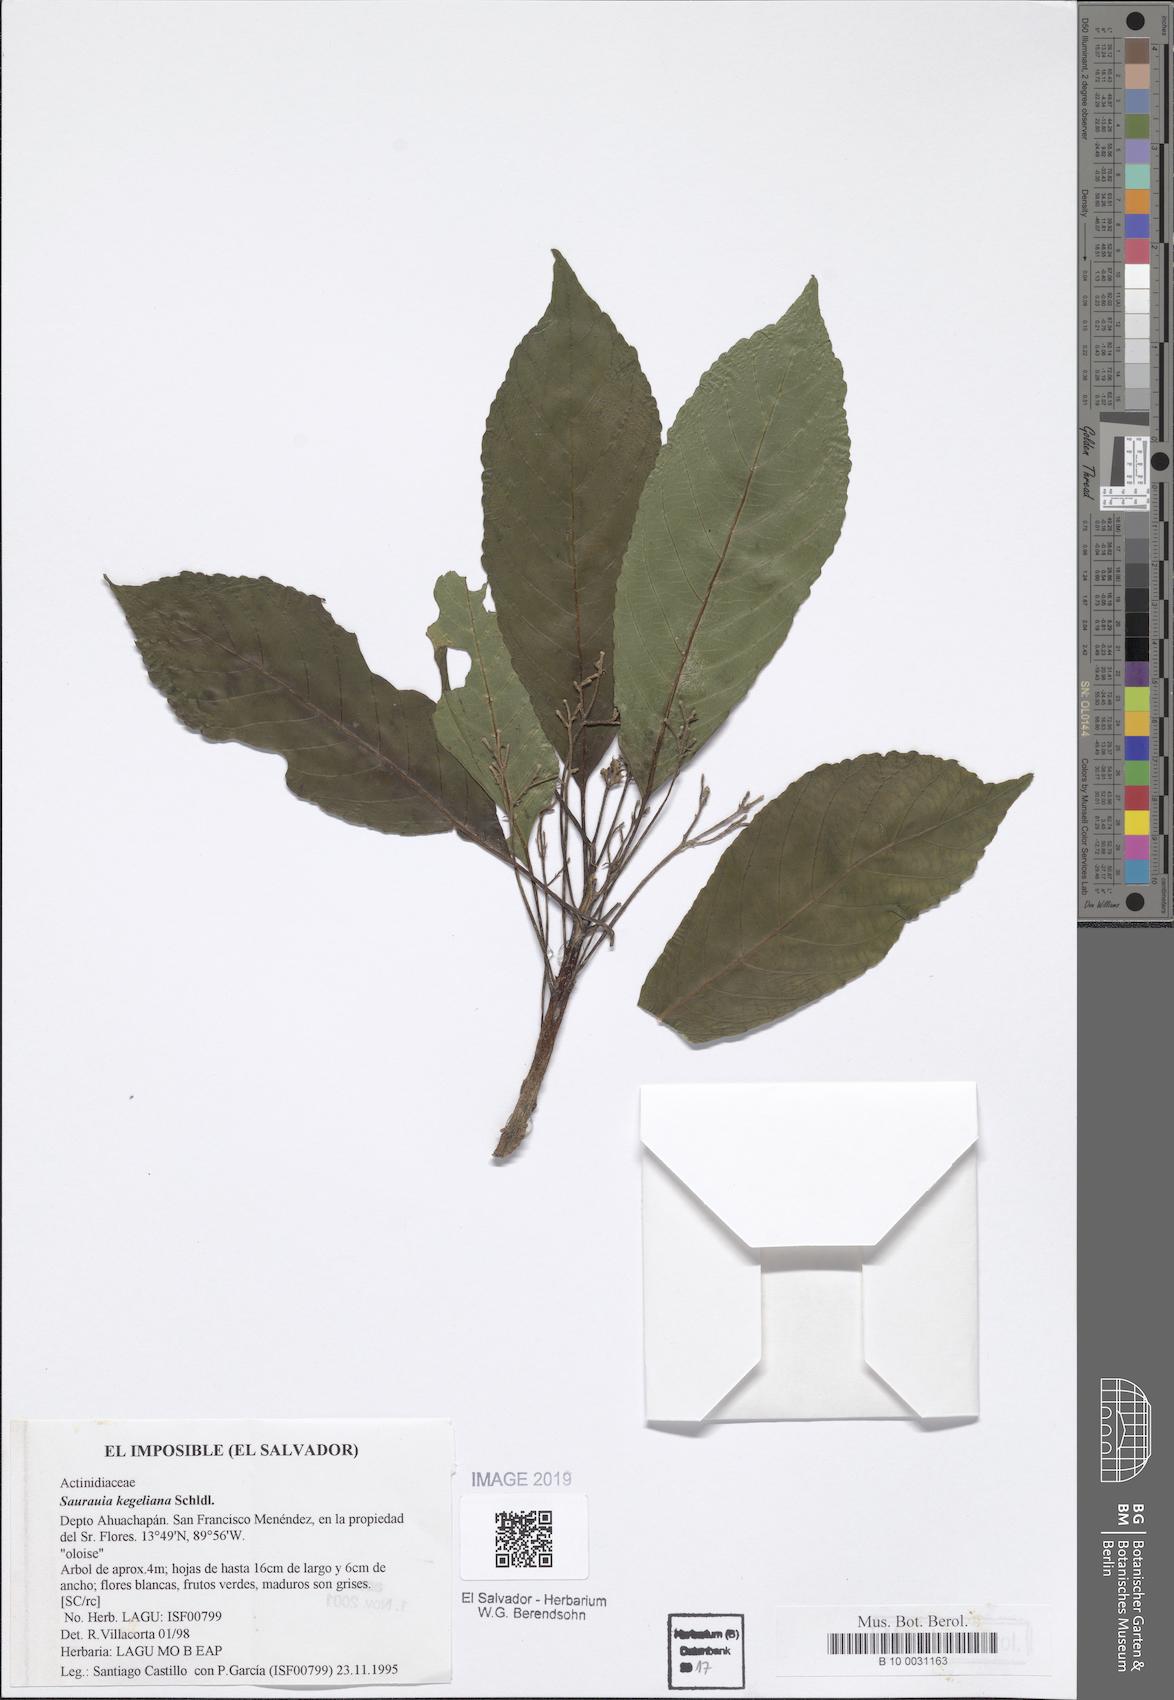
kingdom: Plantae
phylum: Tracheophyta
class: Magnoliopsida
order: Ericales
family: Actinidiaceae
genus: Saurauia
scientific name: Saurauia kegeliana
